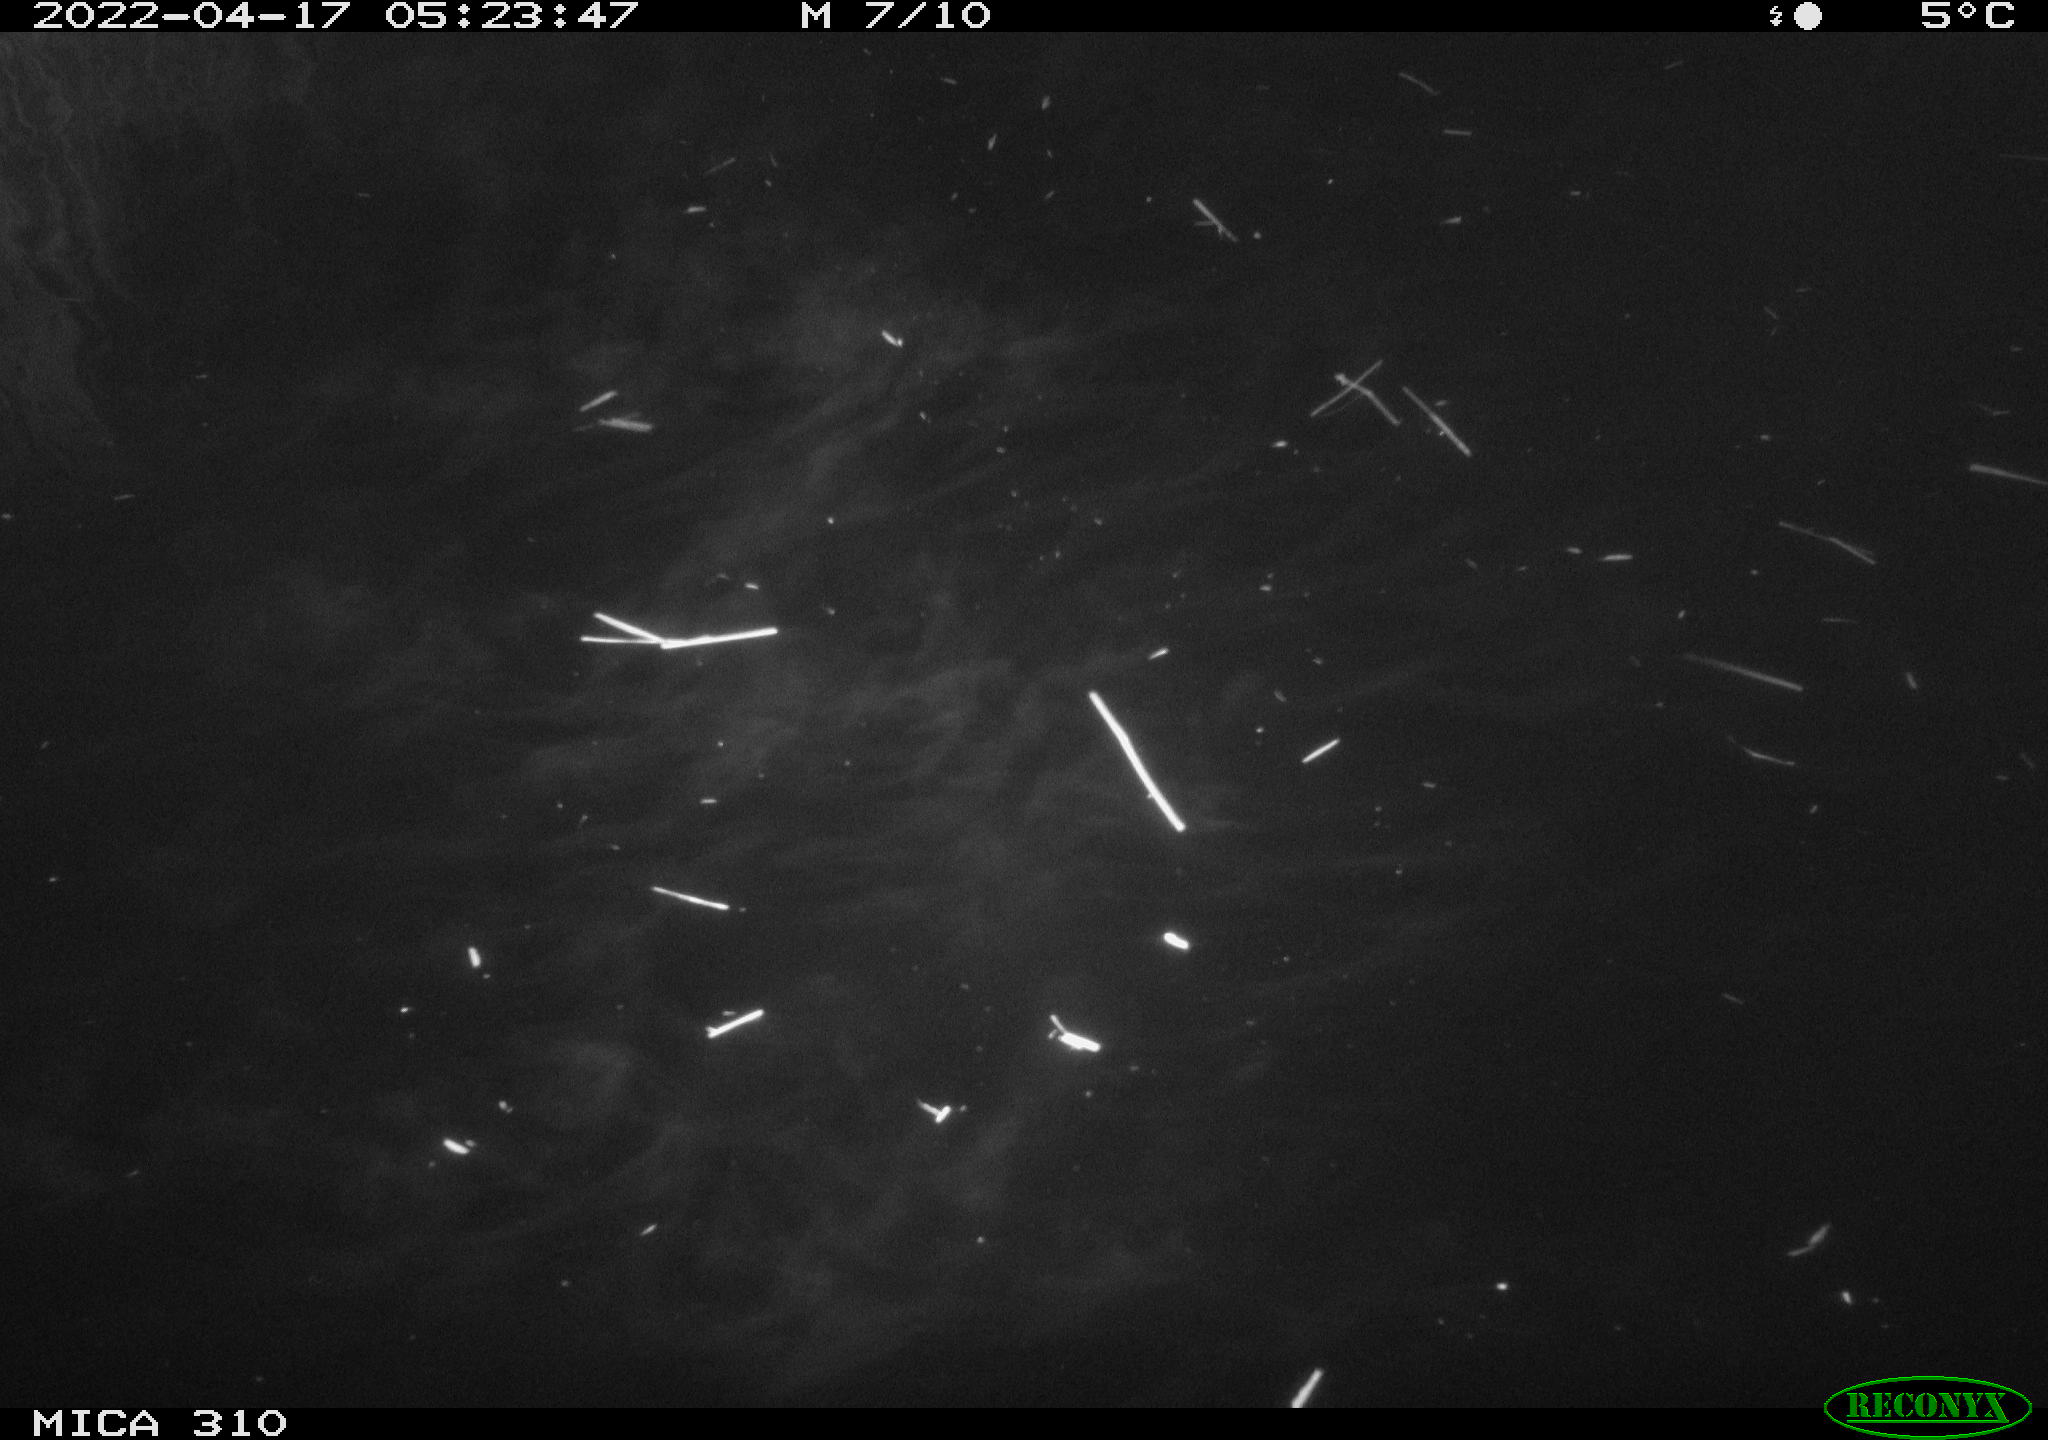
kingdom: Animalia
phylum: Chordata
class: Aves
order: Anseriformes
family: Anatidae
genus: Anas
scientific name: Anas platyrhynchos
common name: Mallard
